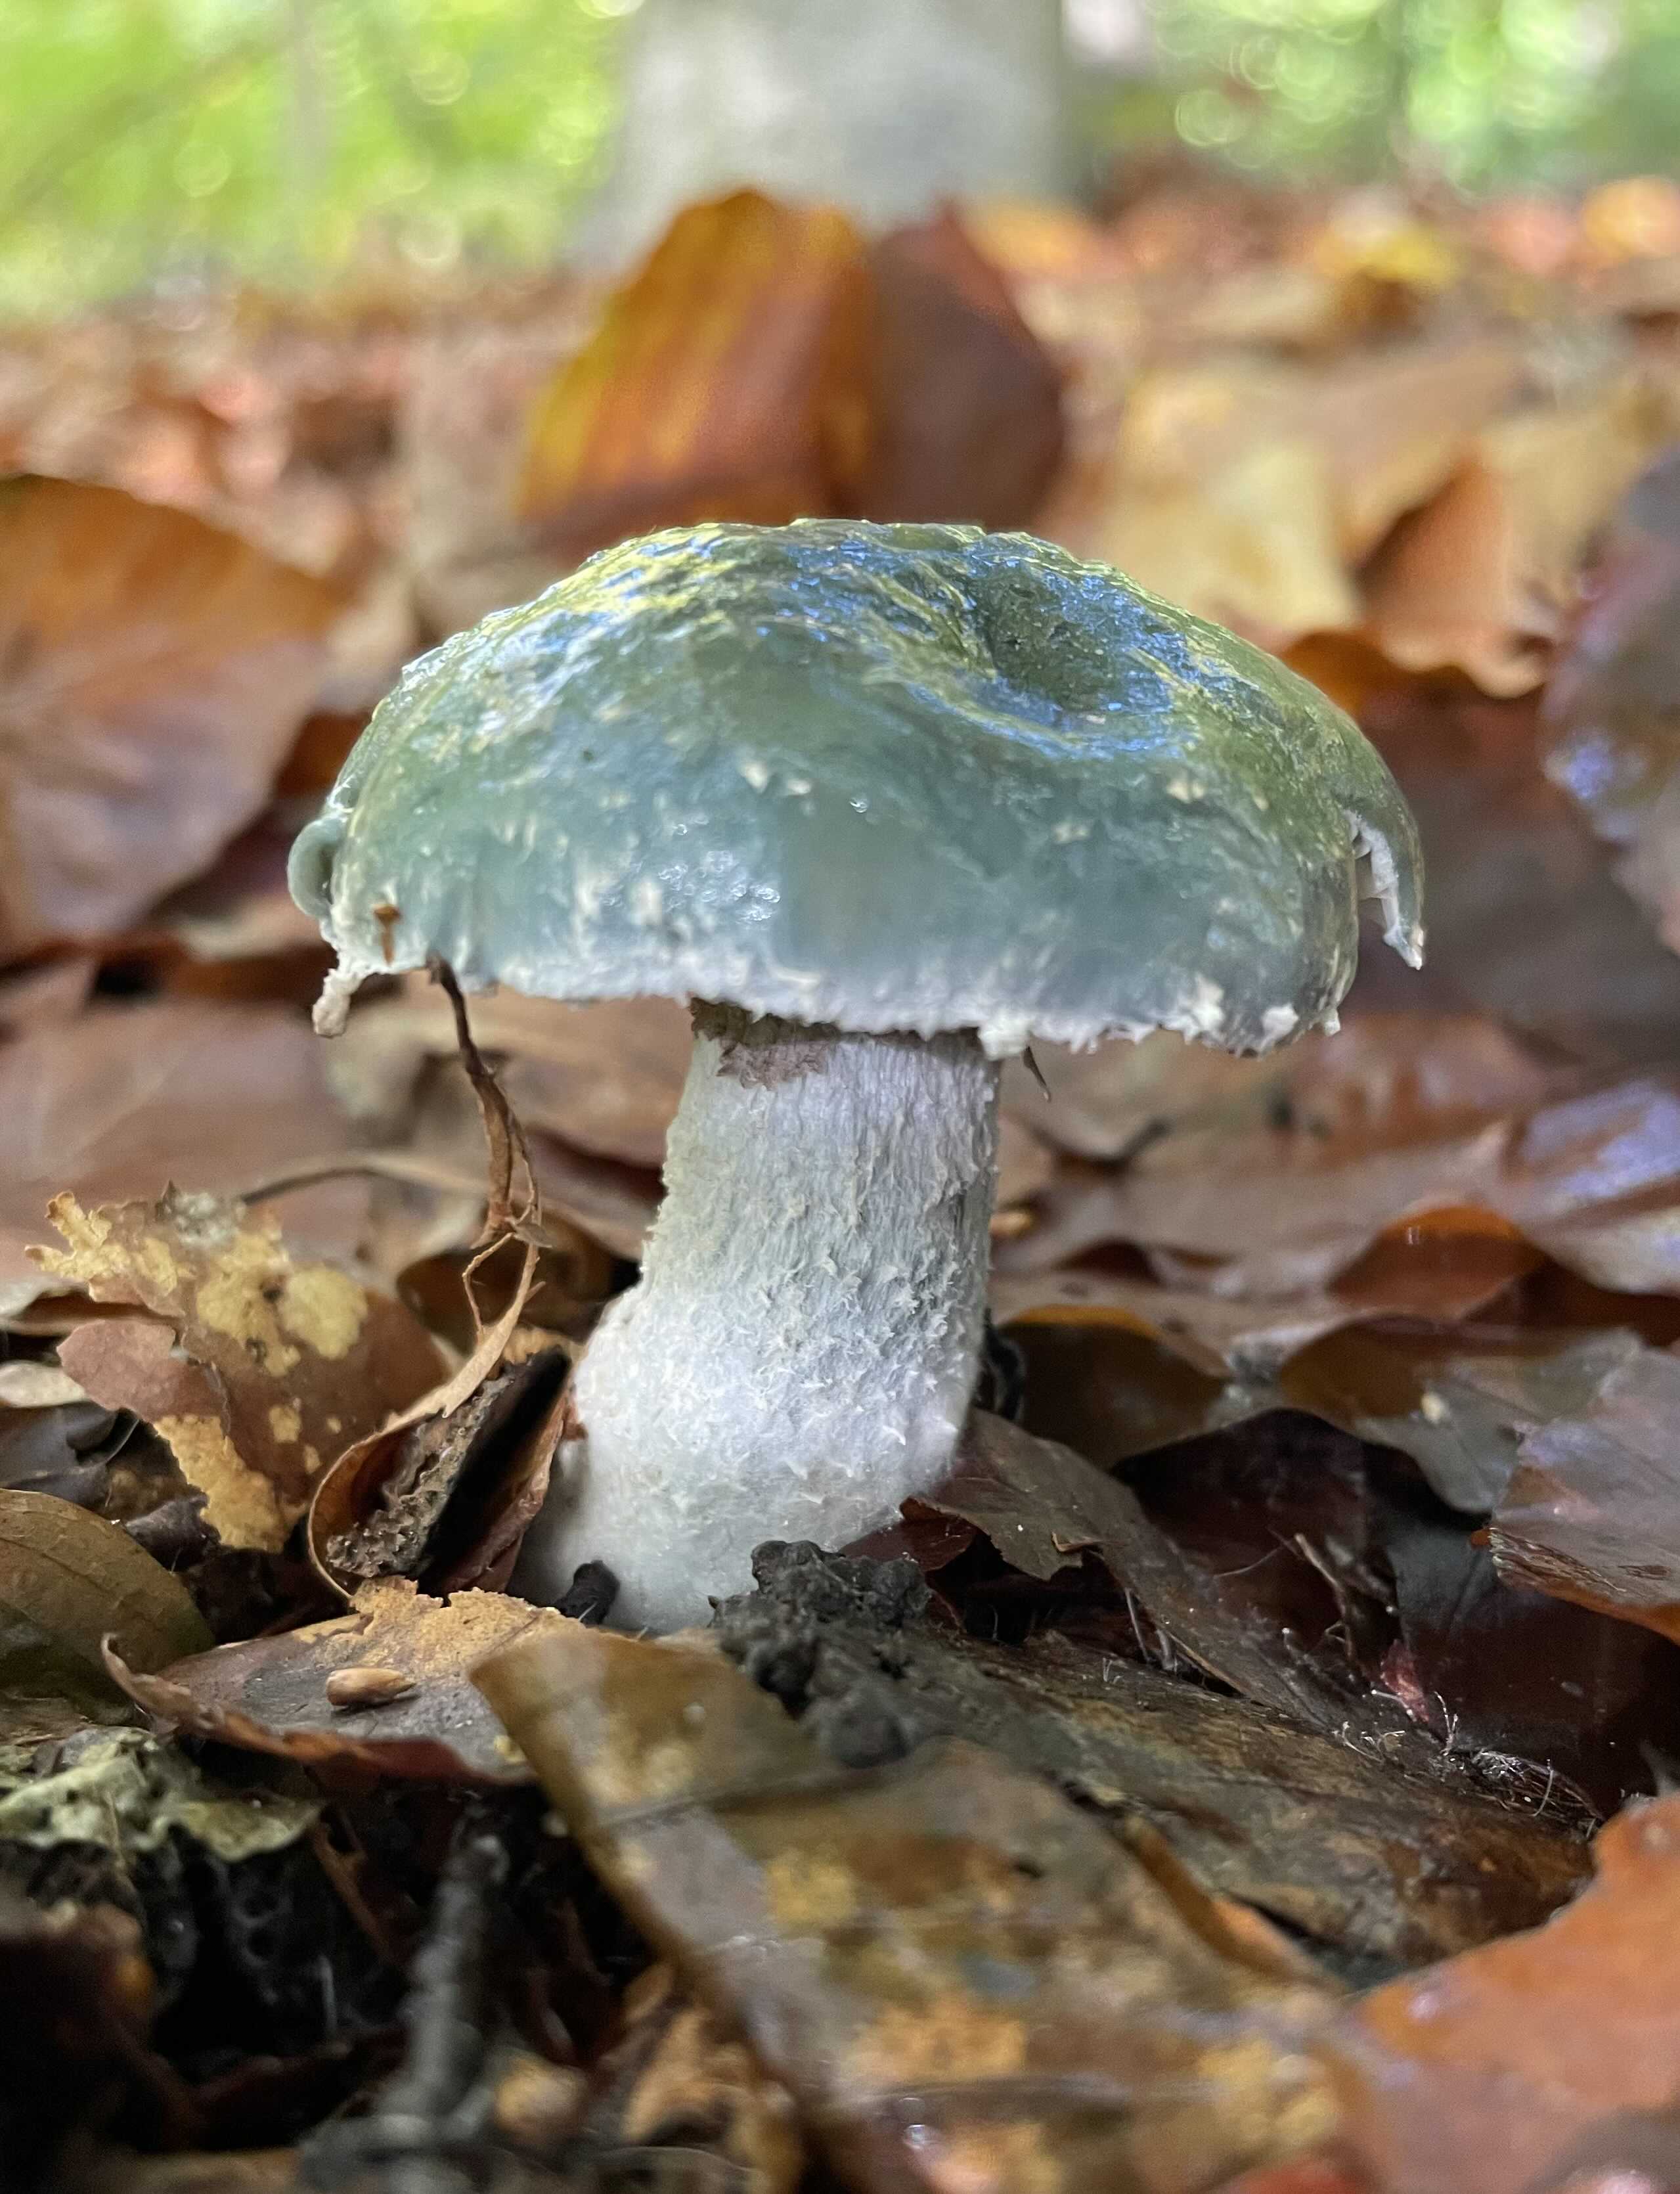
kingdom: Fungi
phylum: Basidiomycota
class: Agaricomycetes
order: Agaricales
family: Strophariaceae
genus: Stropharia
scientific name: Stropharia cyanea
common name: blågrøn bredblad
